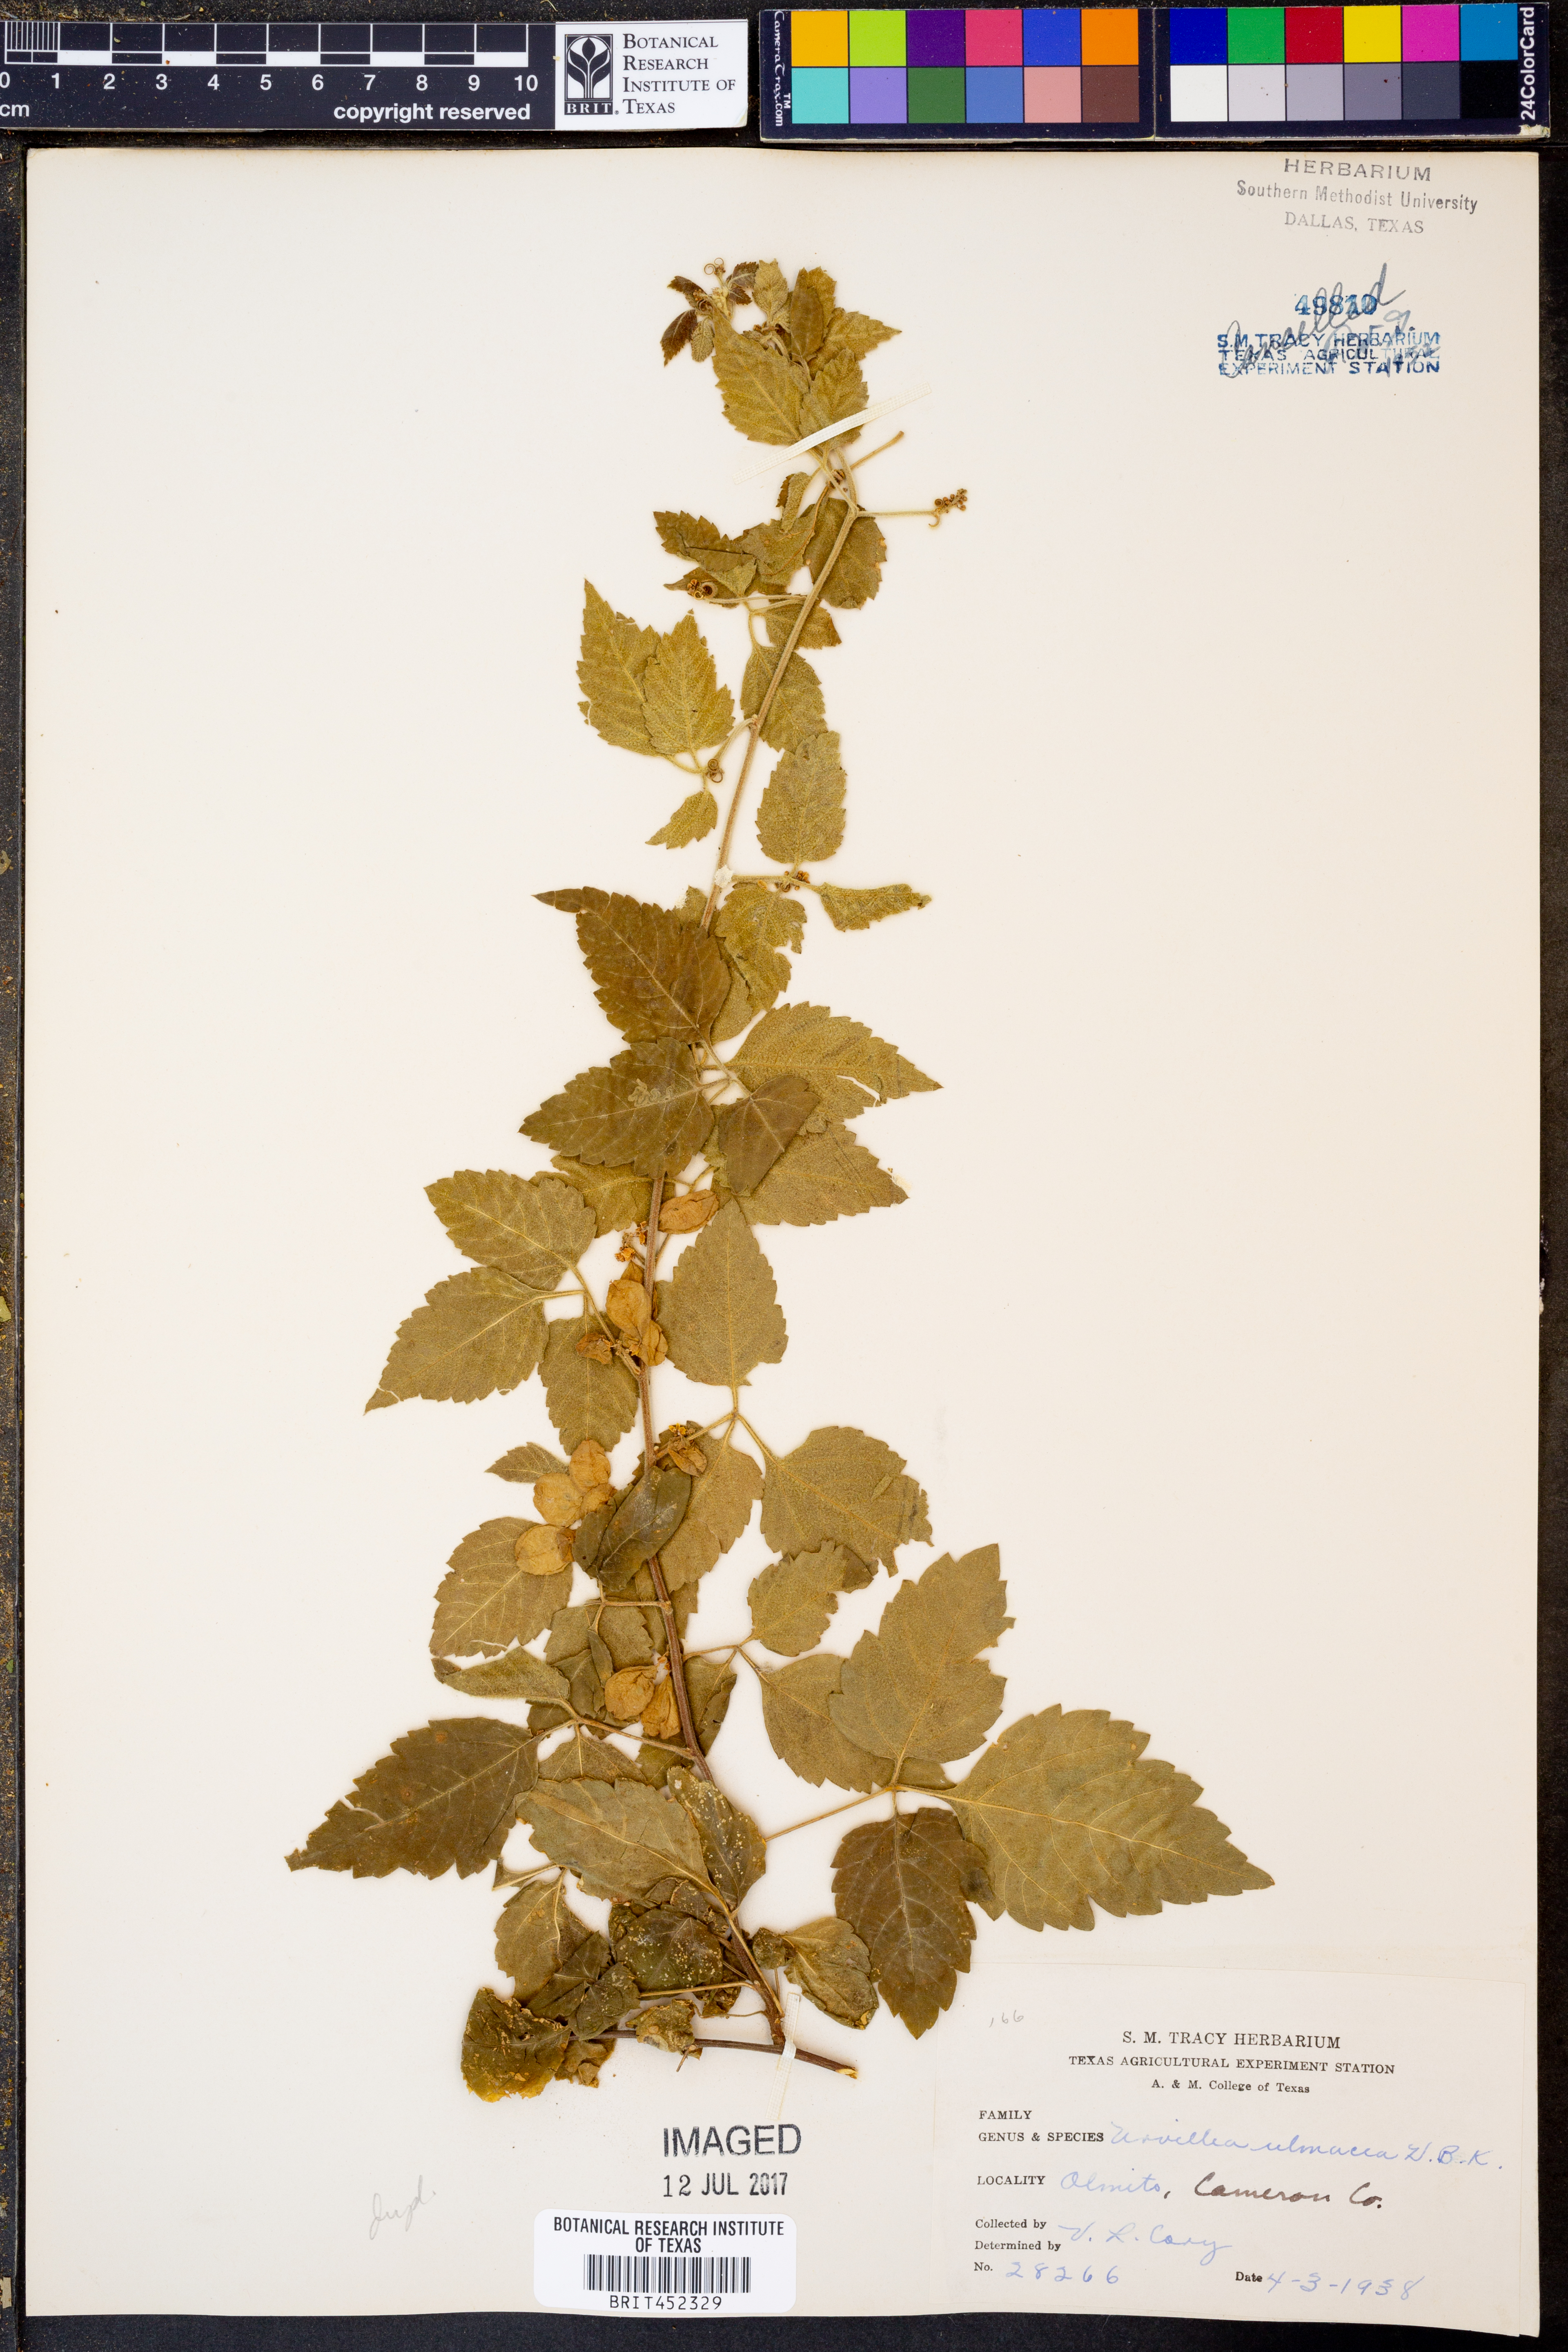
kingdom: Plantae
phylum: Tracheophyta
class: Magnoliopsida
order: Sapindales
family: Sapindaceae
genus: Urvillea
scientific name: Urvillea ulmacea
